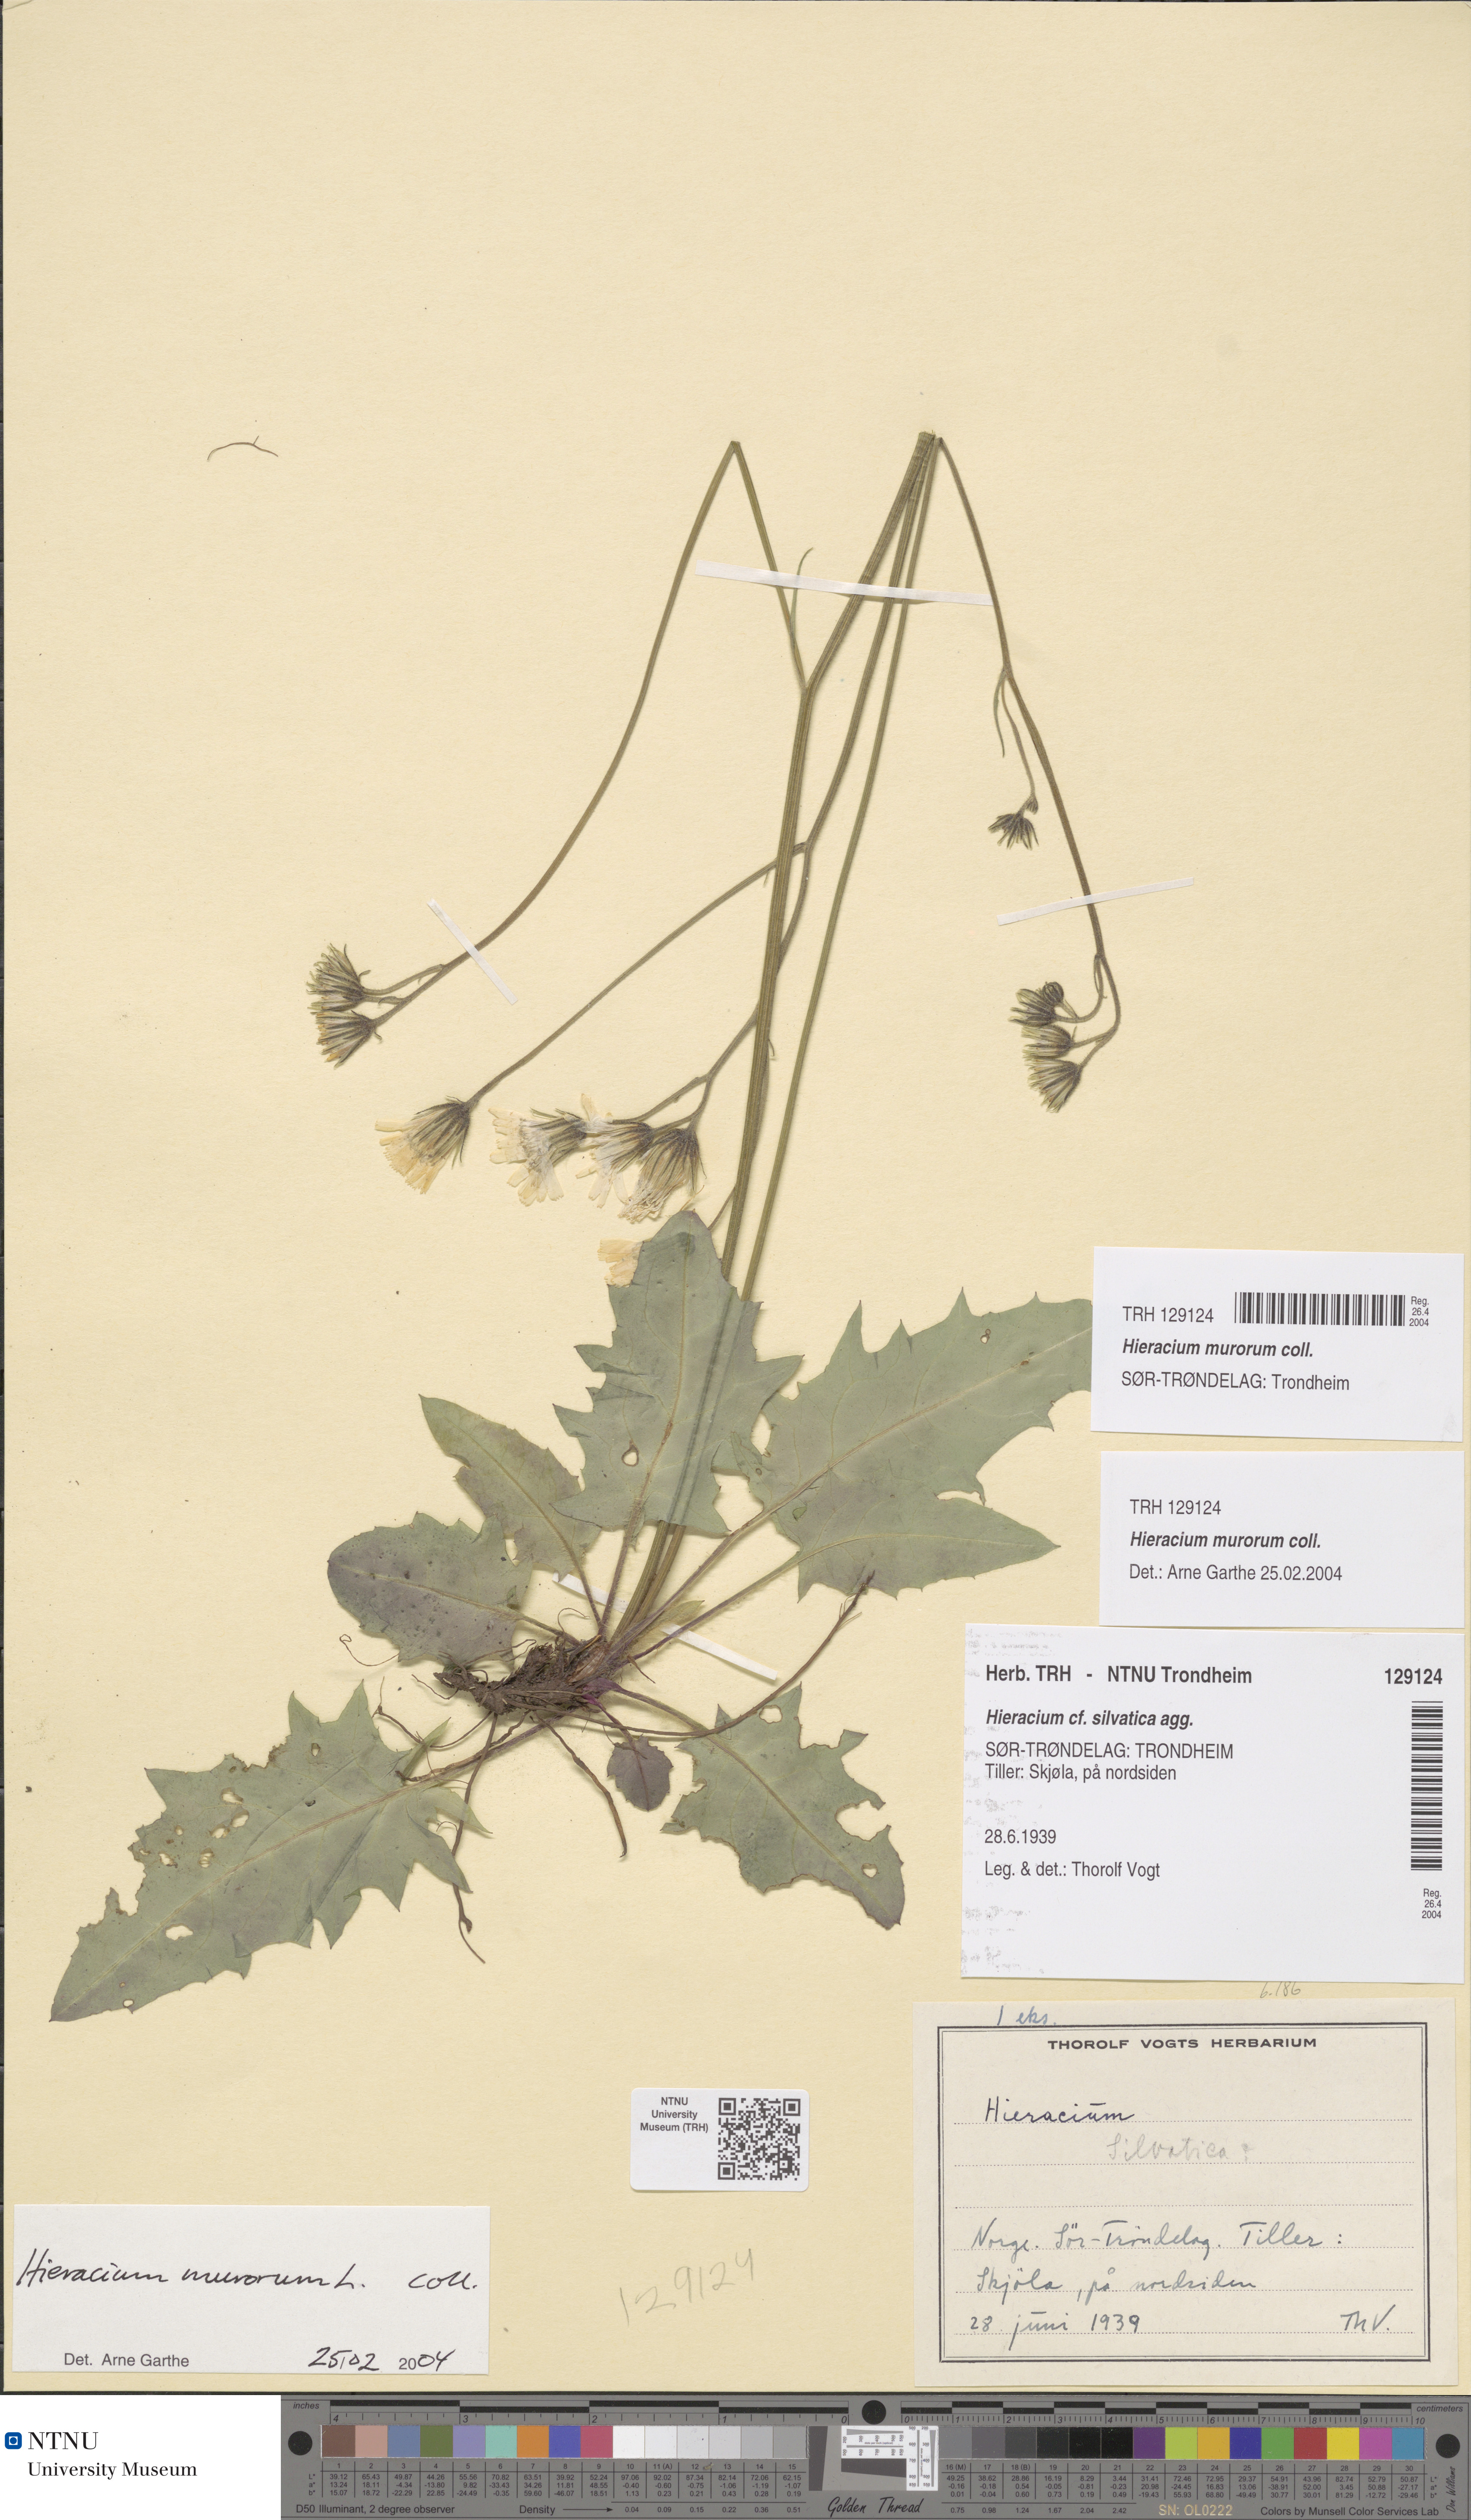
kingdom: Plantae
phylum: Tracheophyta
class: Magnoliopsida
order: Asterales
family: Asteraceae
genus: Hieracium
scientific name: Hieracium murorum
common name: Wall hawkweed
